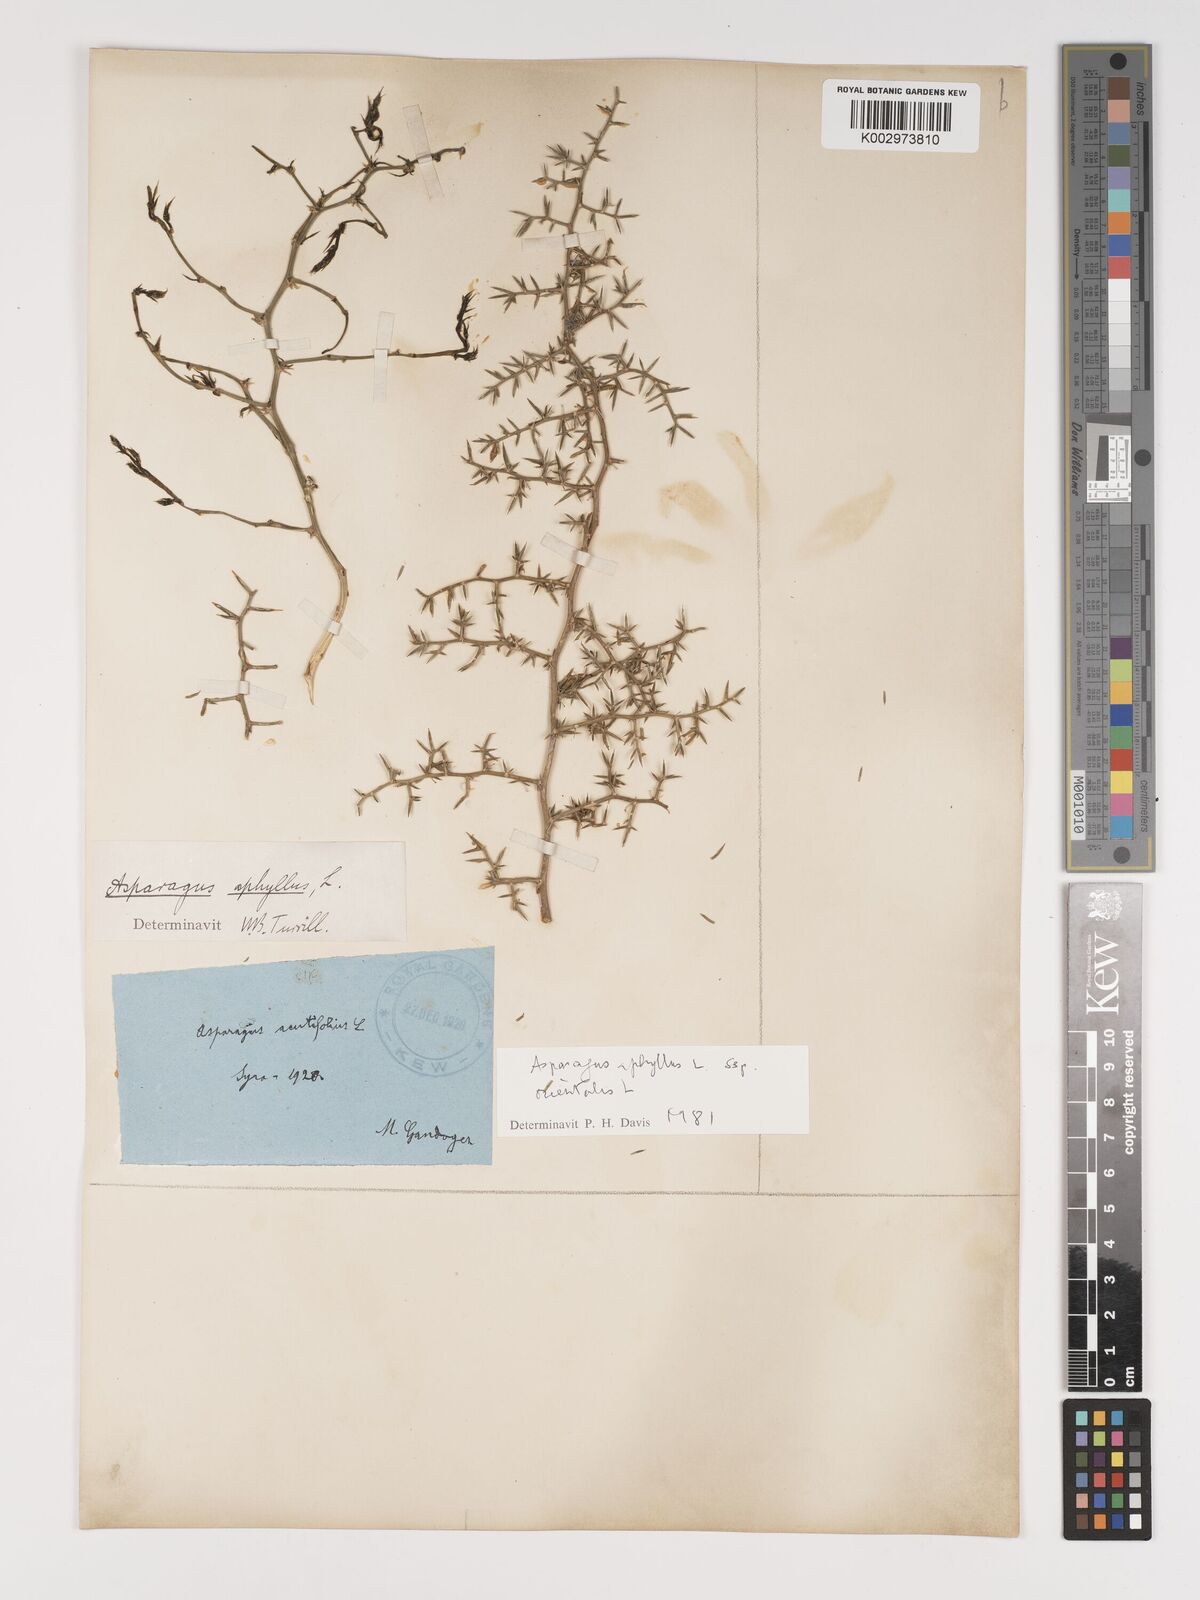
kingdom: Plantae
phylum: Tracheophyta
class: Liliopsida
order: Asparagales
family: Asparagaceae
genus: Asparagus
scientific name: Asparagus
